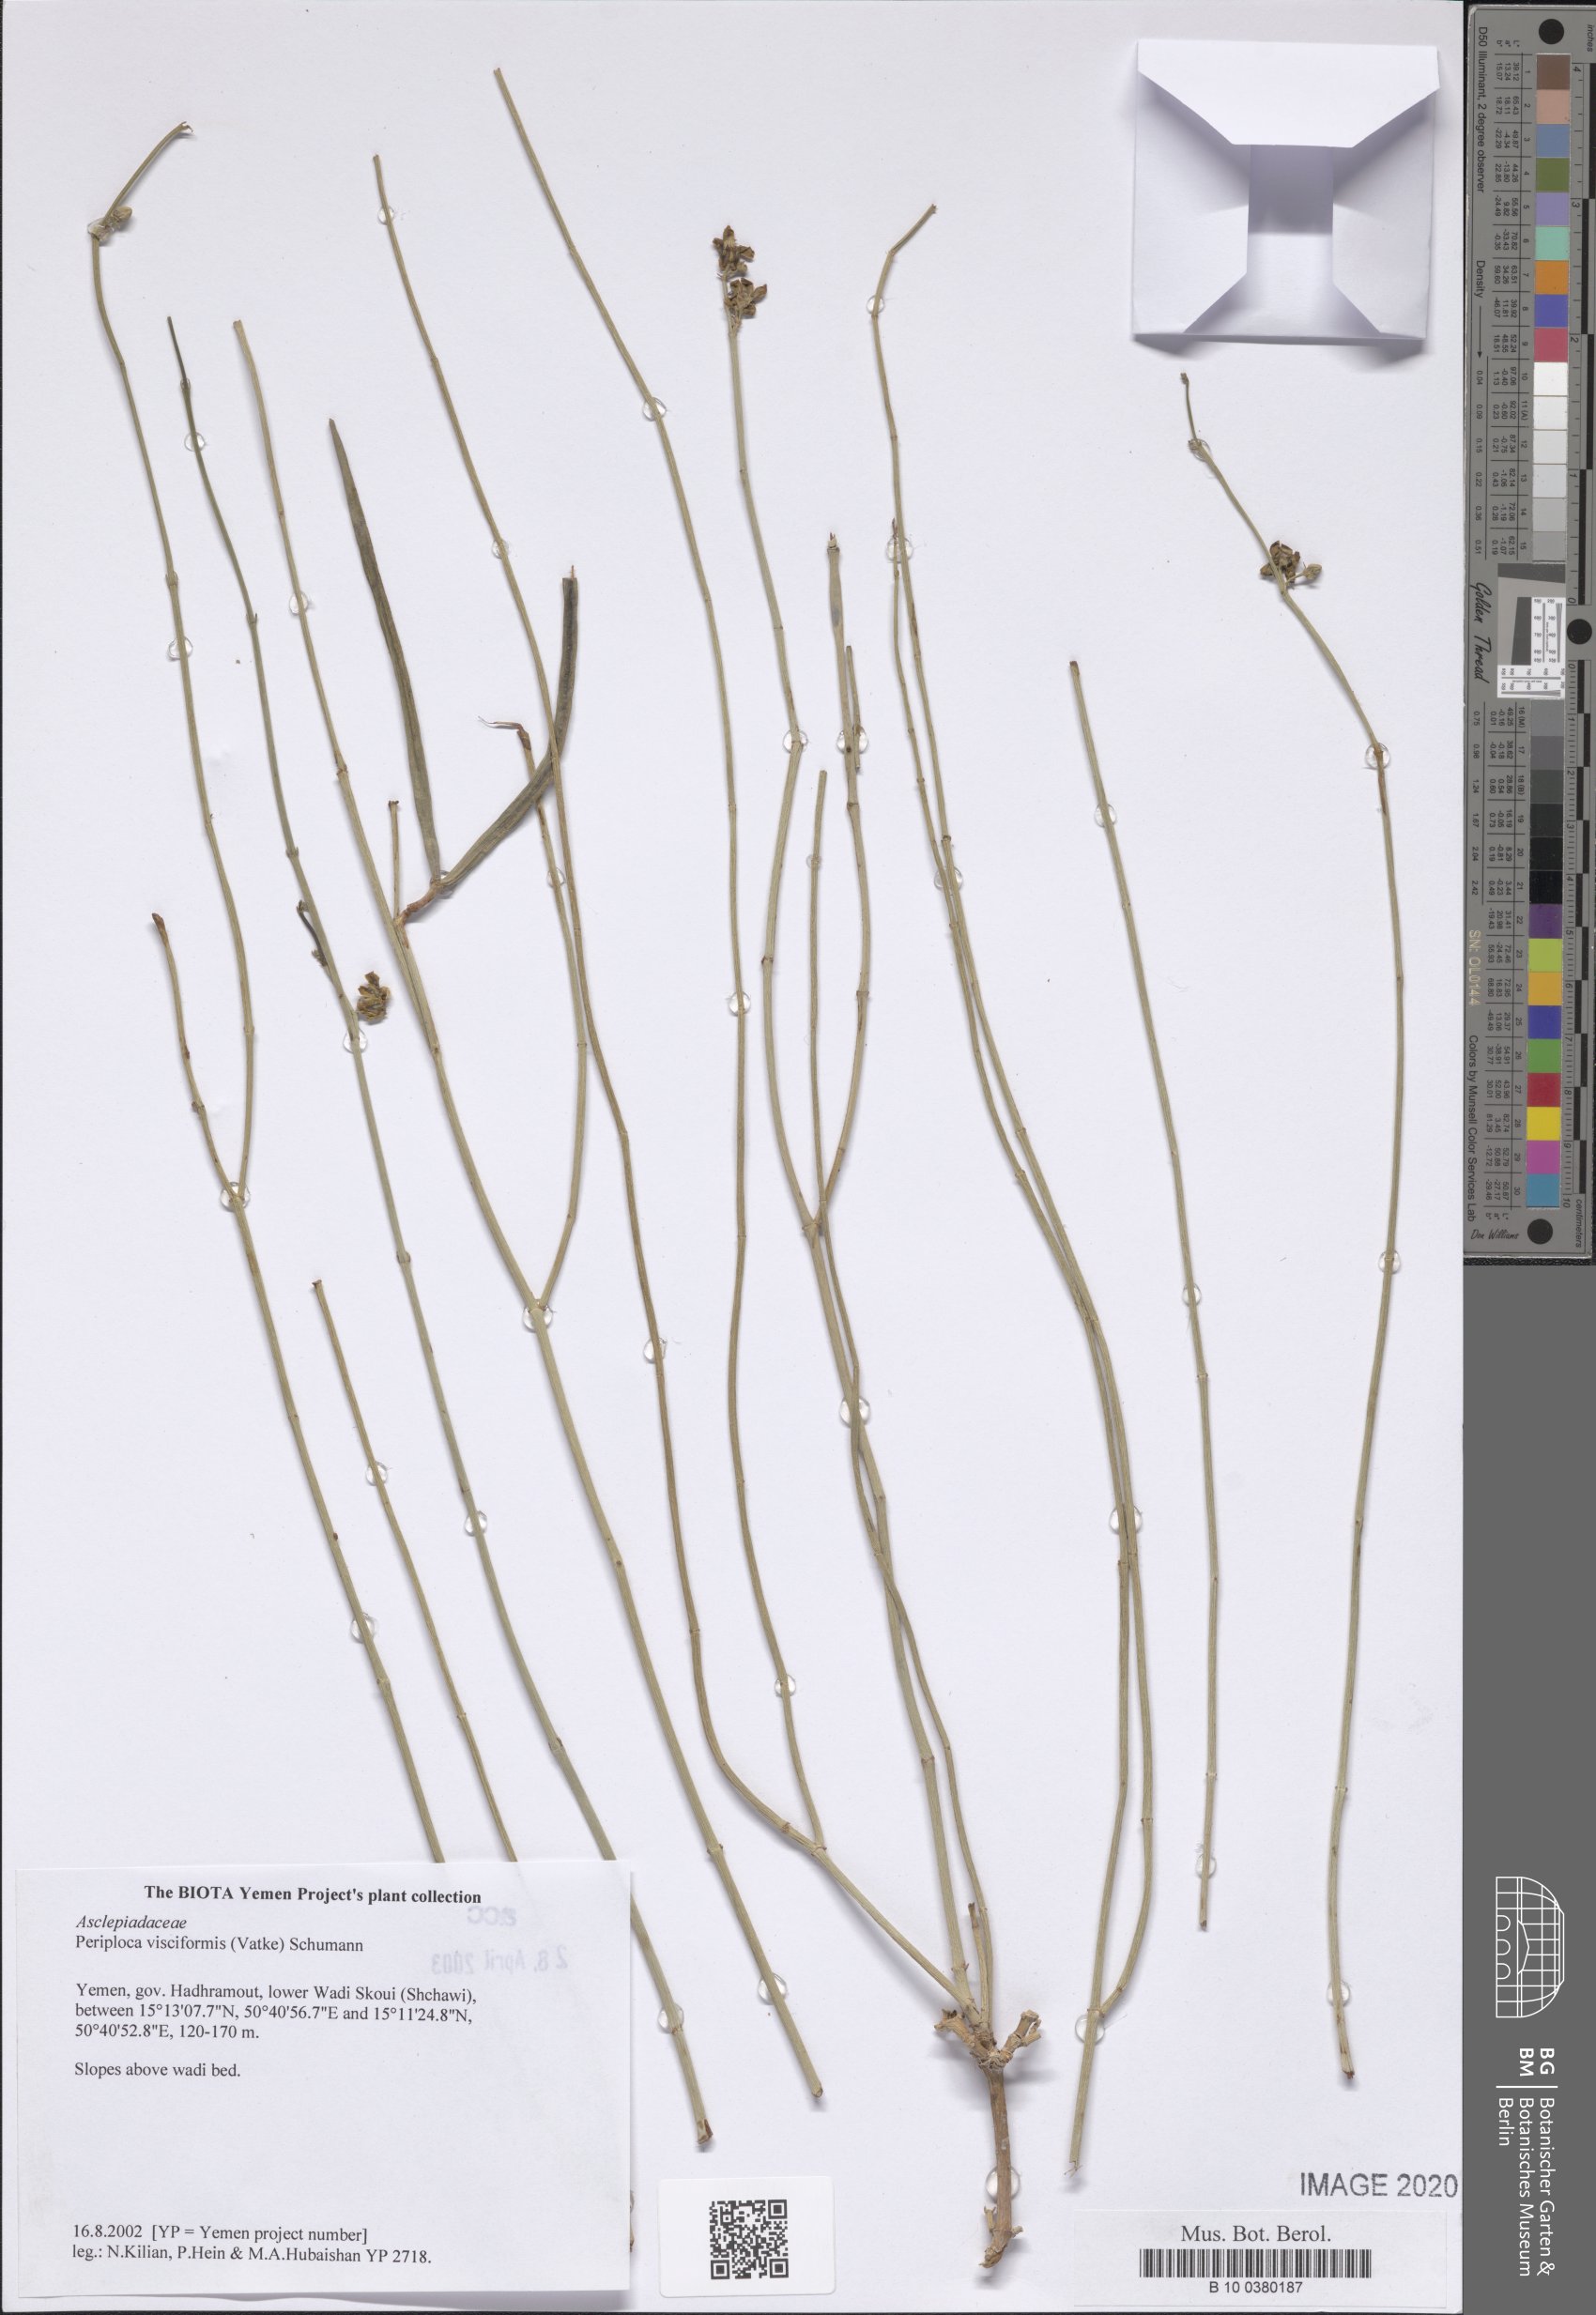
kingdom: Plantae
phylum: Tracheophyta
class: Magnoliopsida
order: Gentianales
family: Apocynaceae
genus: Periploca
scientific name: Periploca visciformis
